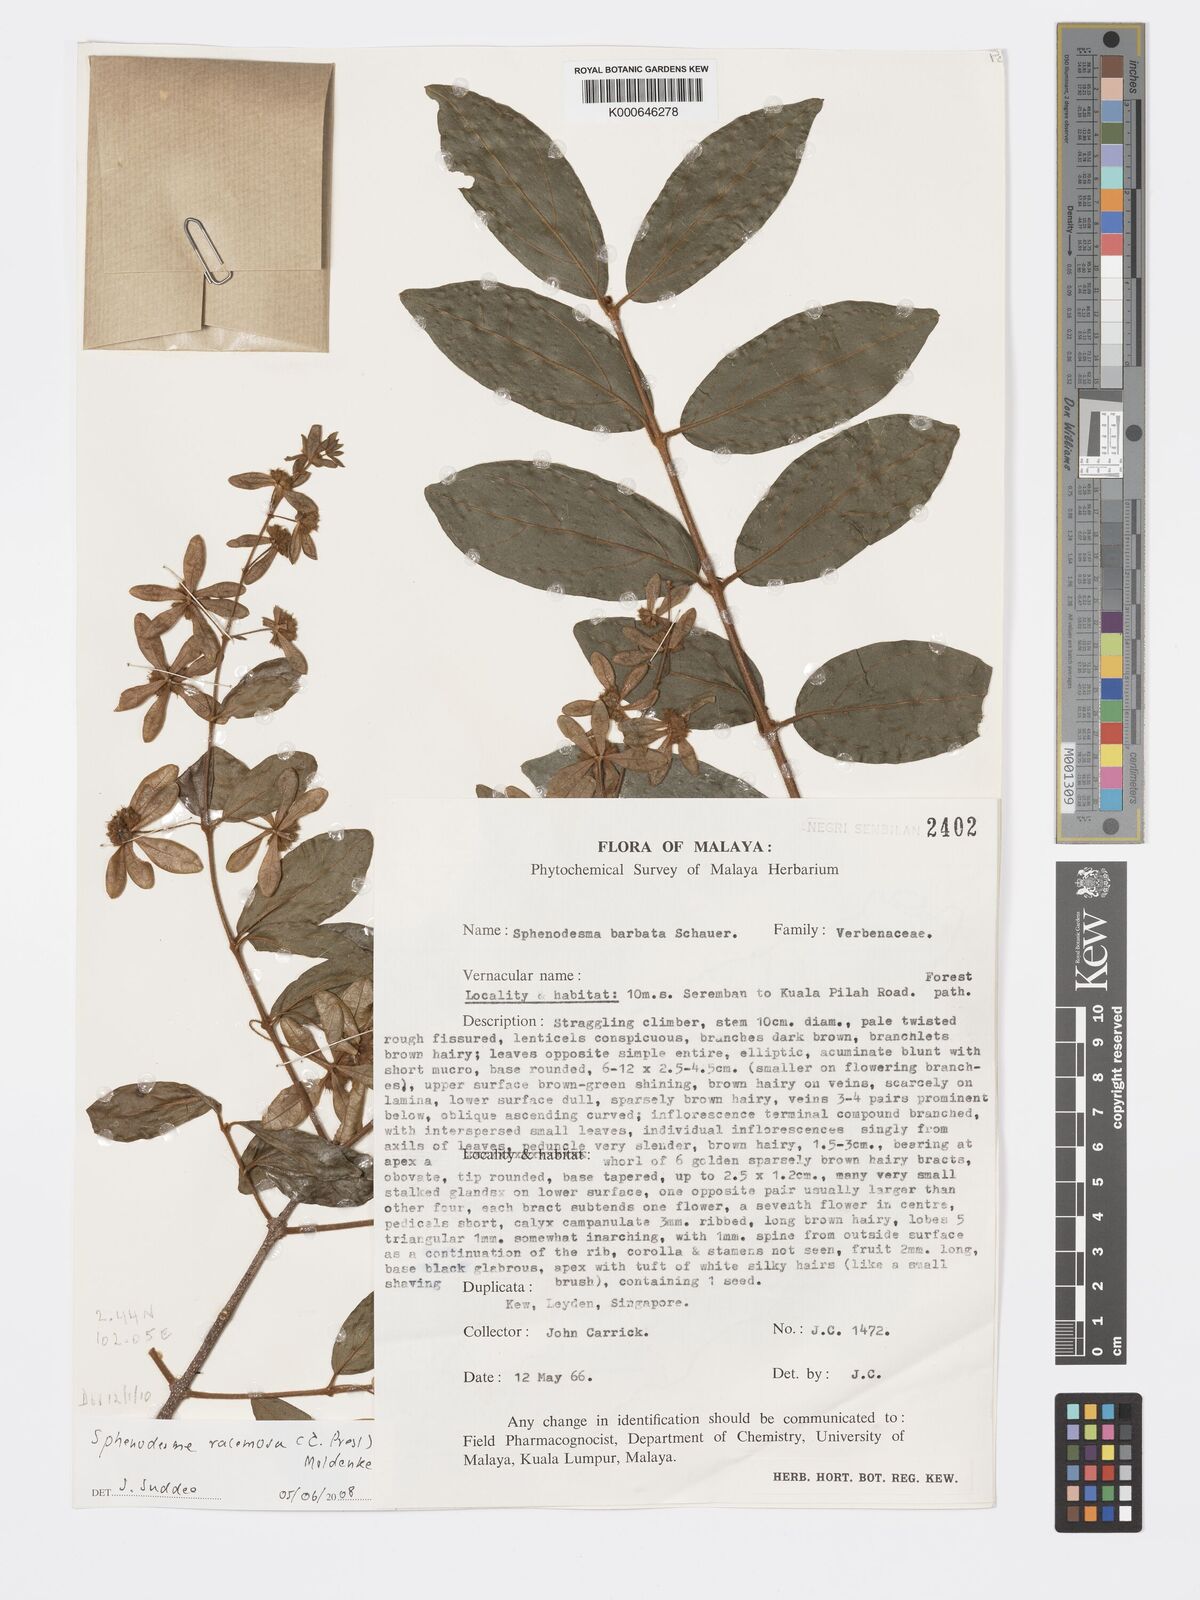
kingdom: Plantae
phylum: Tracheophyta
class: Magnoliopsida
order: Lamiales
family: Lamiaceae
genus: Sphenodesme
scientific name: Sphenodesme racemosa
